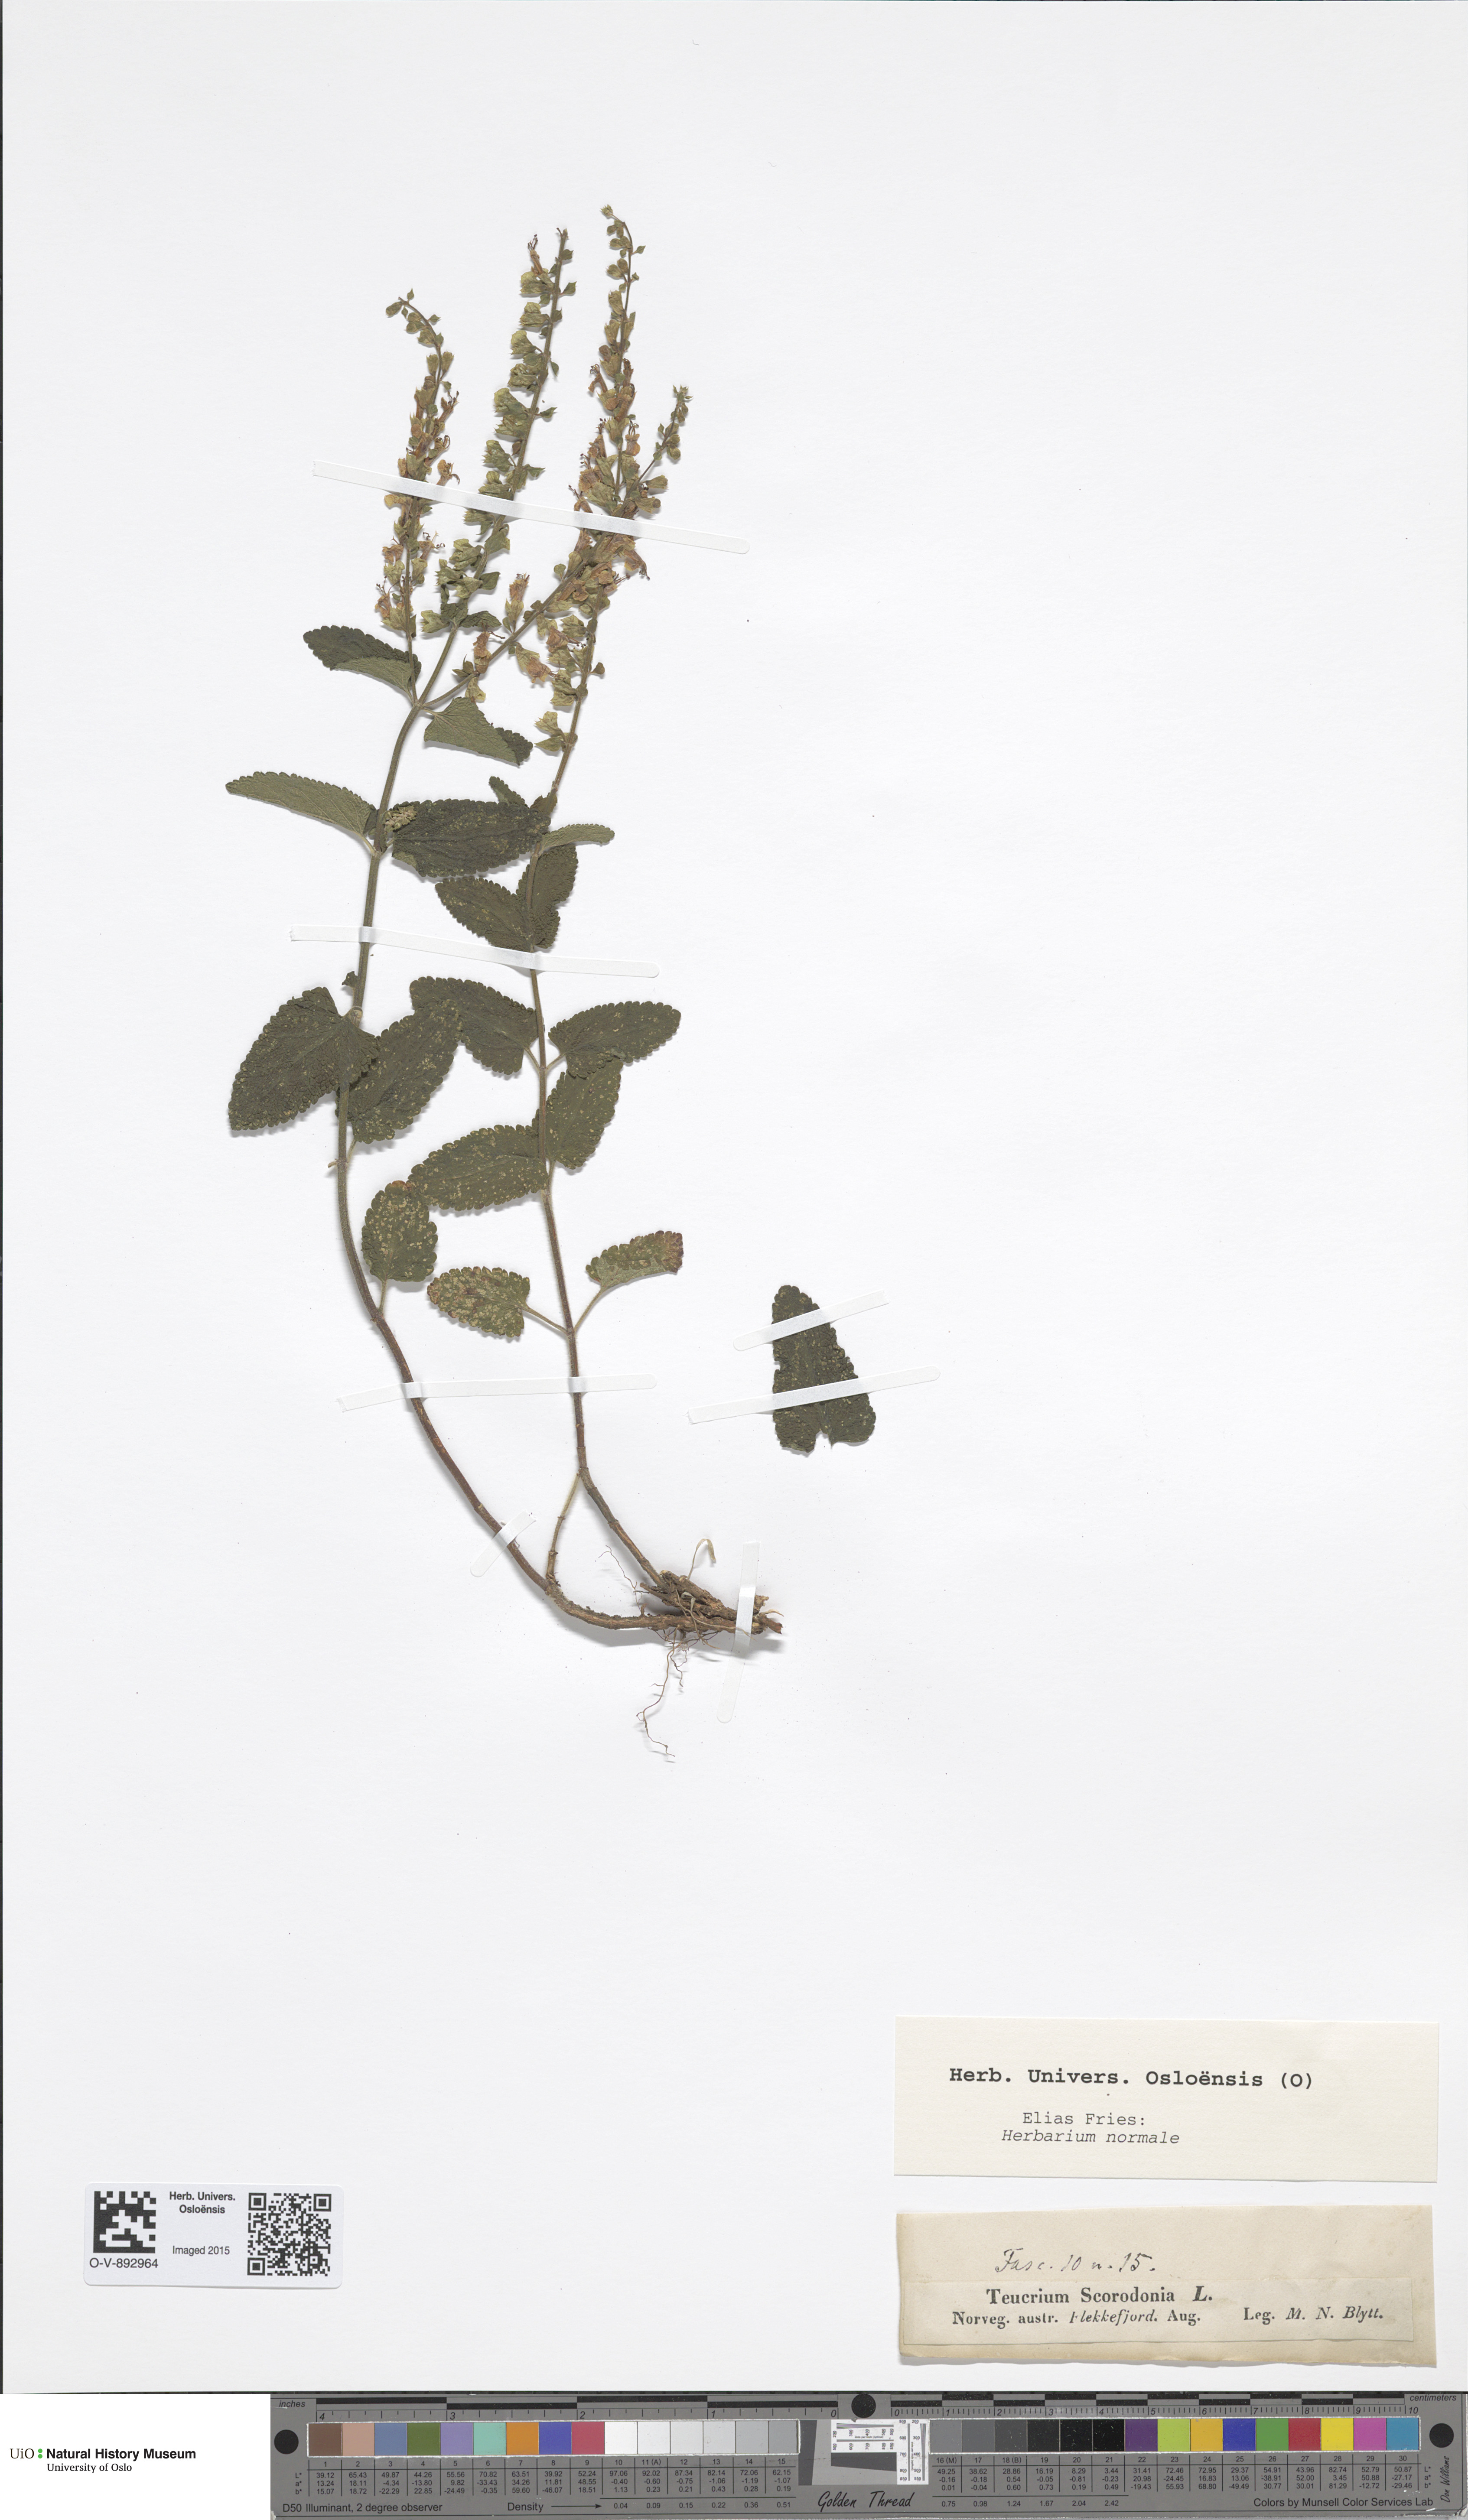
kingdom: Plantae
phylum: Tracheophyta
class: Magnoliopsida
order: Lamiales
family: Lamiaceae
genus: Teucrium
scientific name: Teucrium scorodonia
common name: Woodland germander
